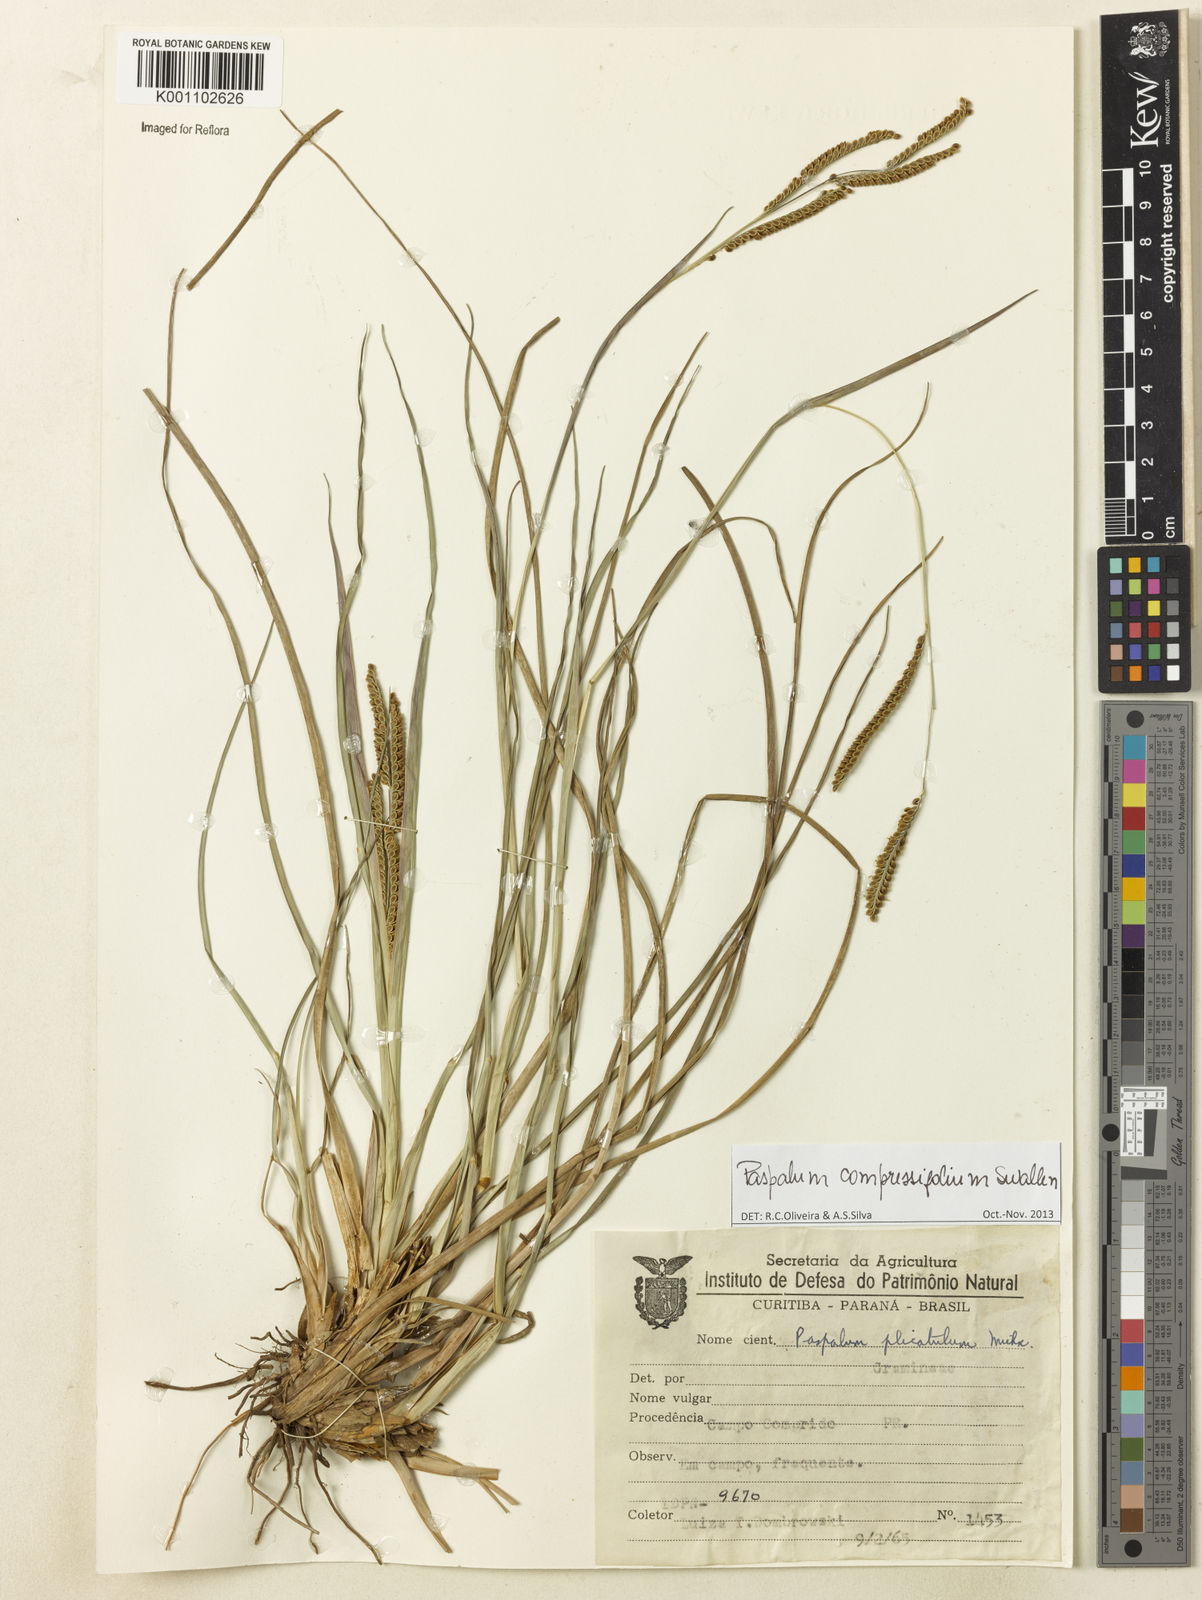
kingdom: Plantae
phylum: Tracheophyta
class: Liliopsida
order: Poales
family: Poaceae
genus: Paspalum
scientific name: Paspalum
